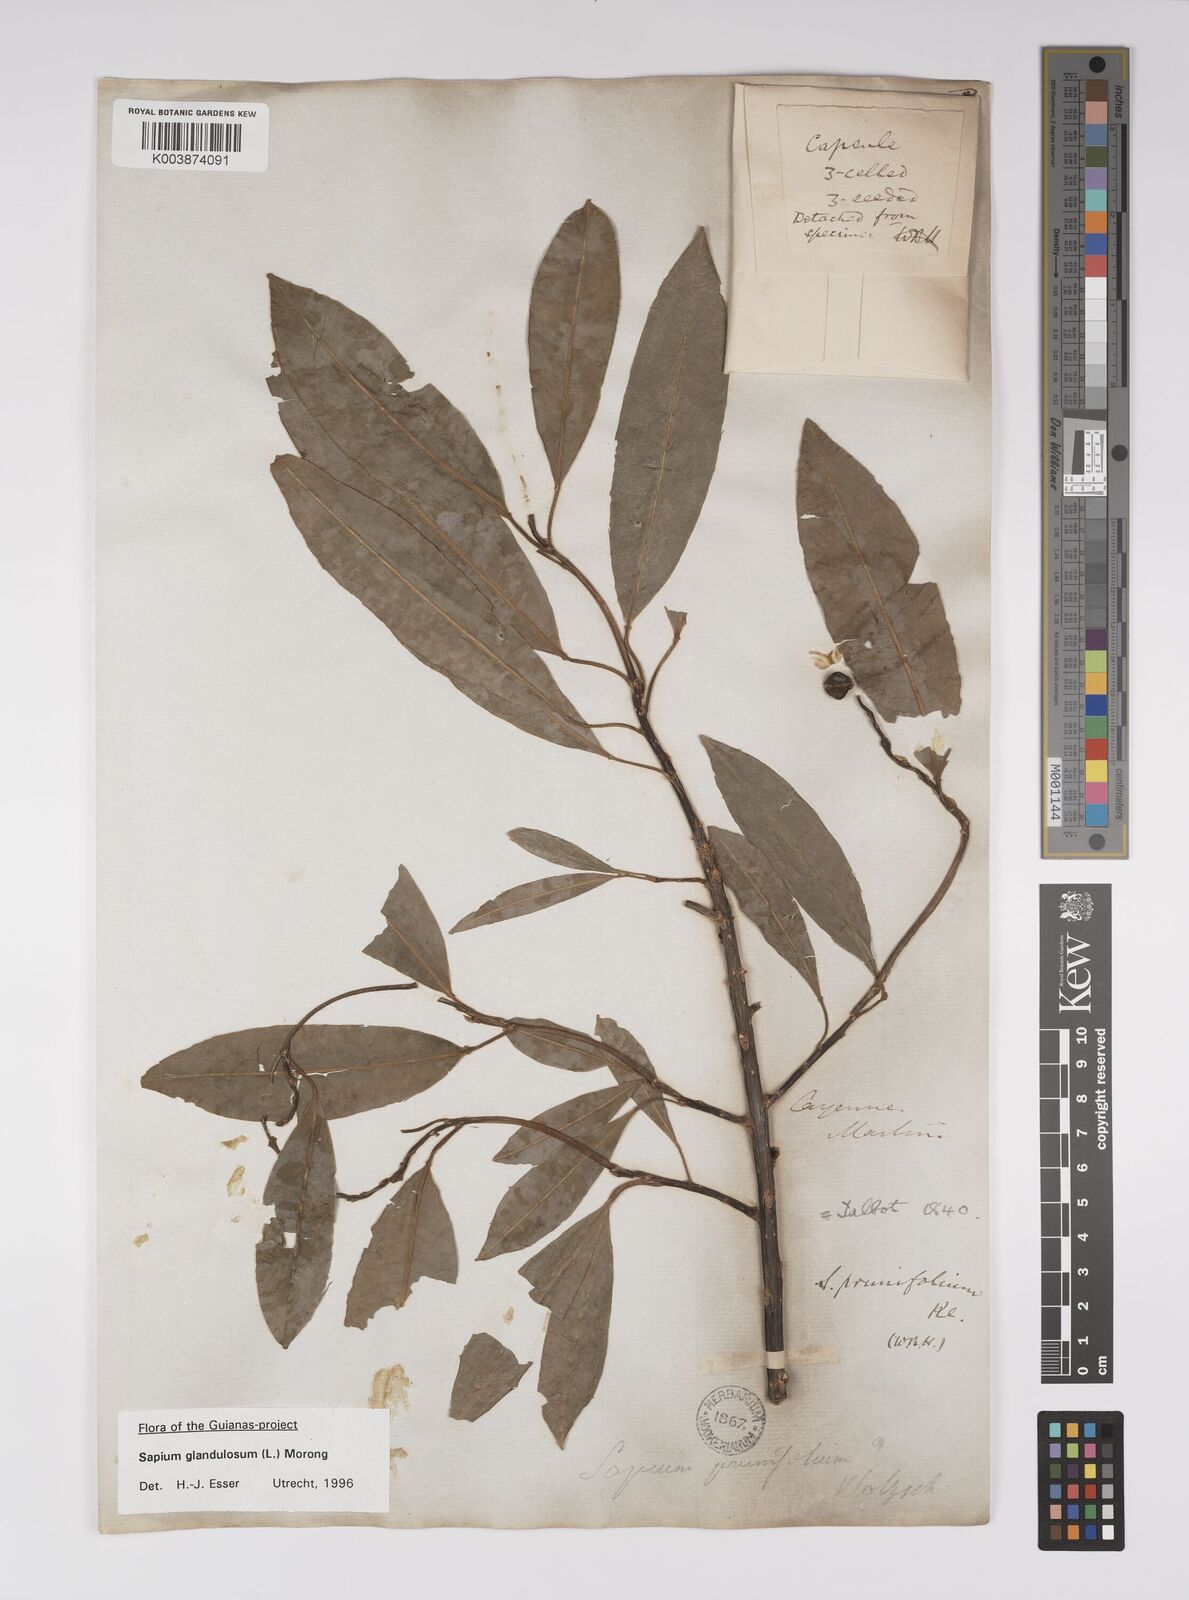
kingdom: Plantae
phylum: Tracheophyta
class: Magnoliopsida
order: Malpighiales
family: Euphorbiaceae
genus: Sapium
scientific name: Sapium glandulosum
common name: Milktree
